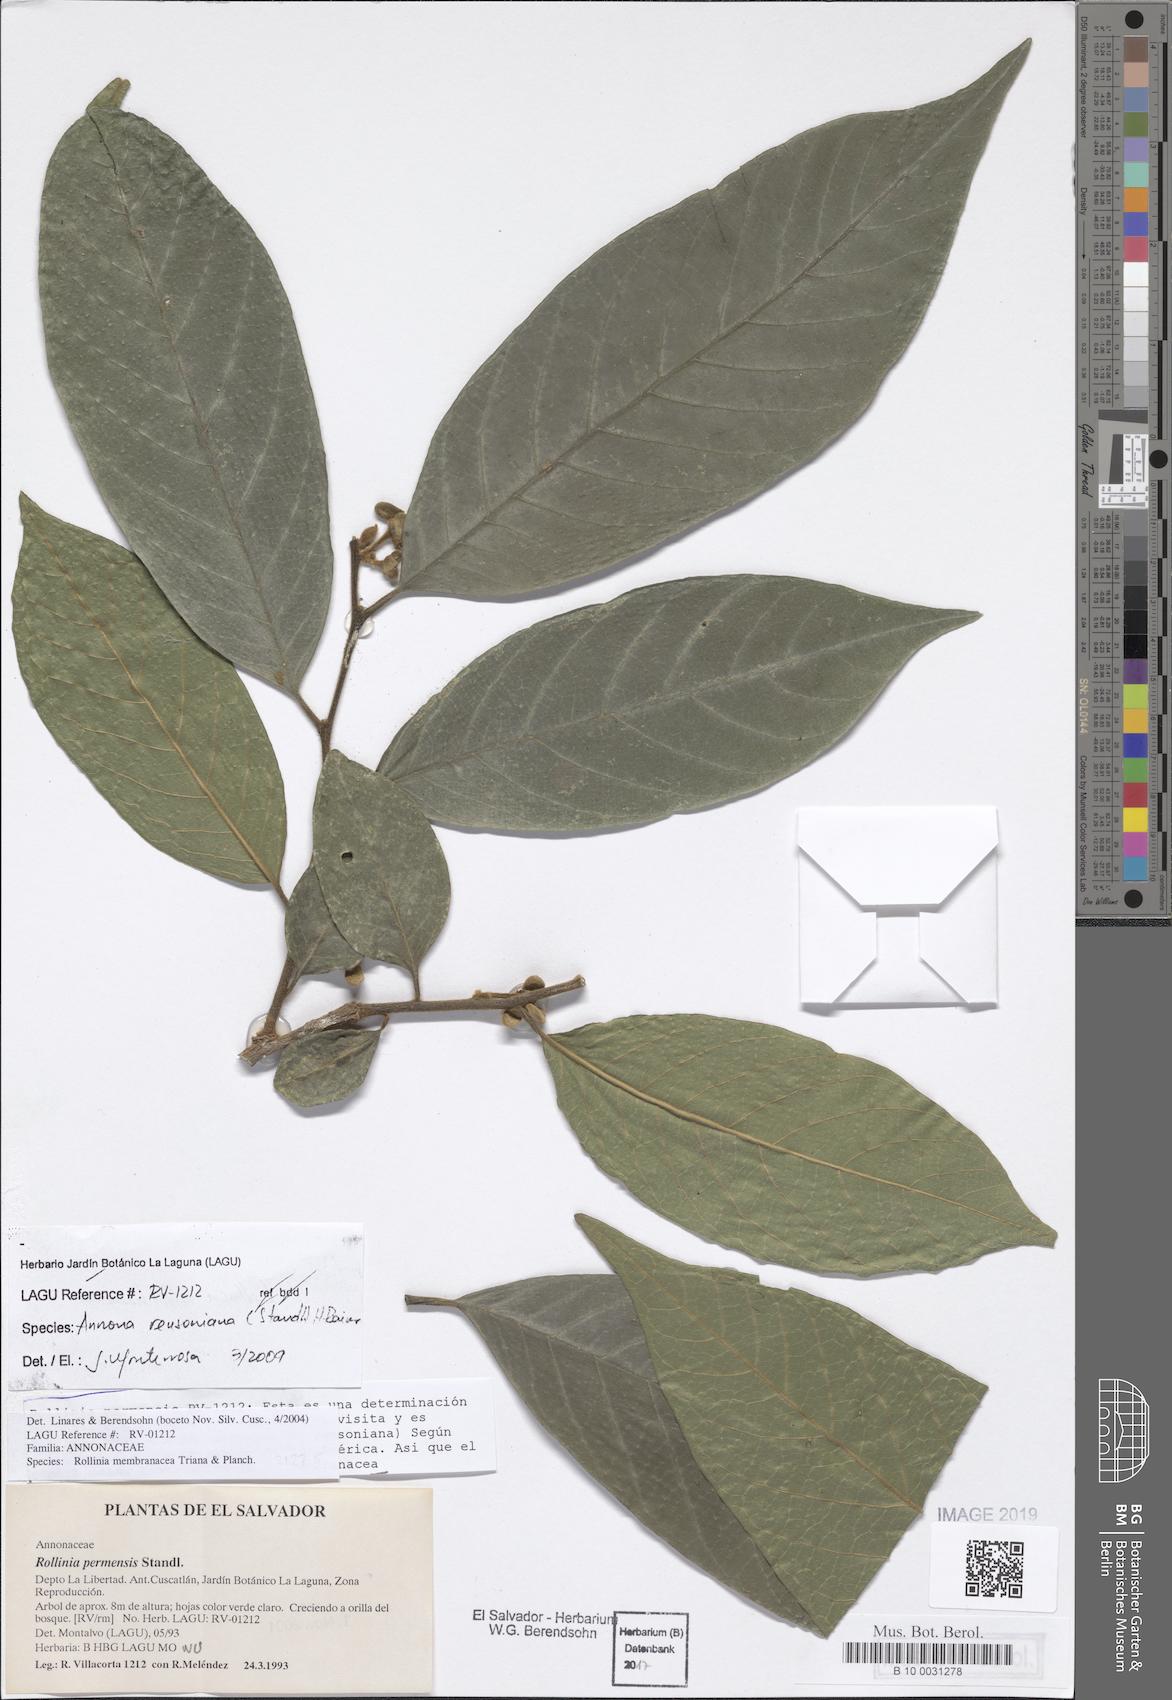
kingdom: Plantae
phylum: Tracheophyta
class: Magnoliopsida
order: Magnoliales
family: Annonaceae
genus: Annona
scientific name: Annona rensoniana
